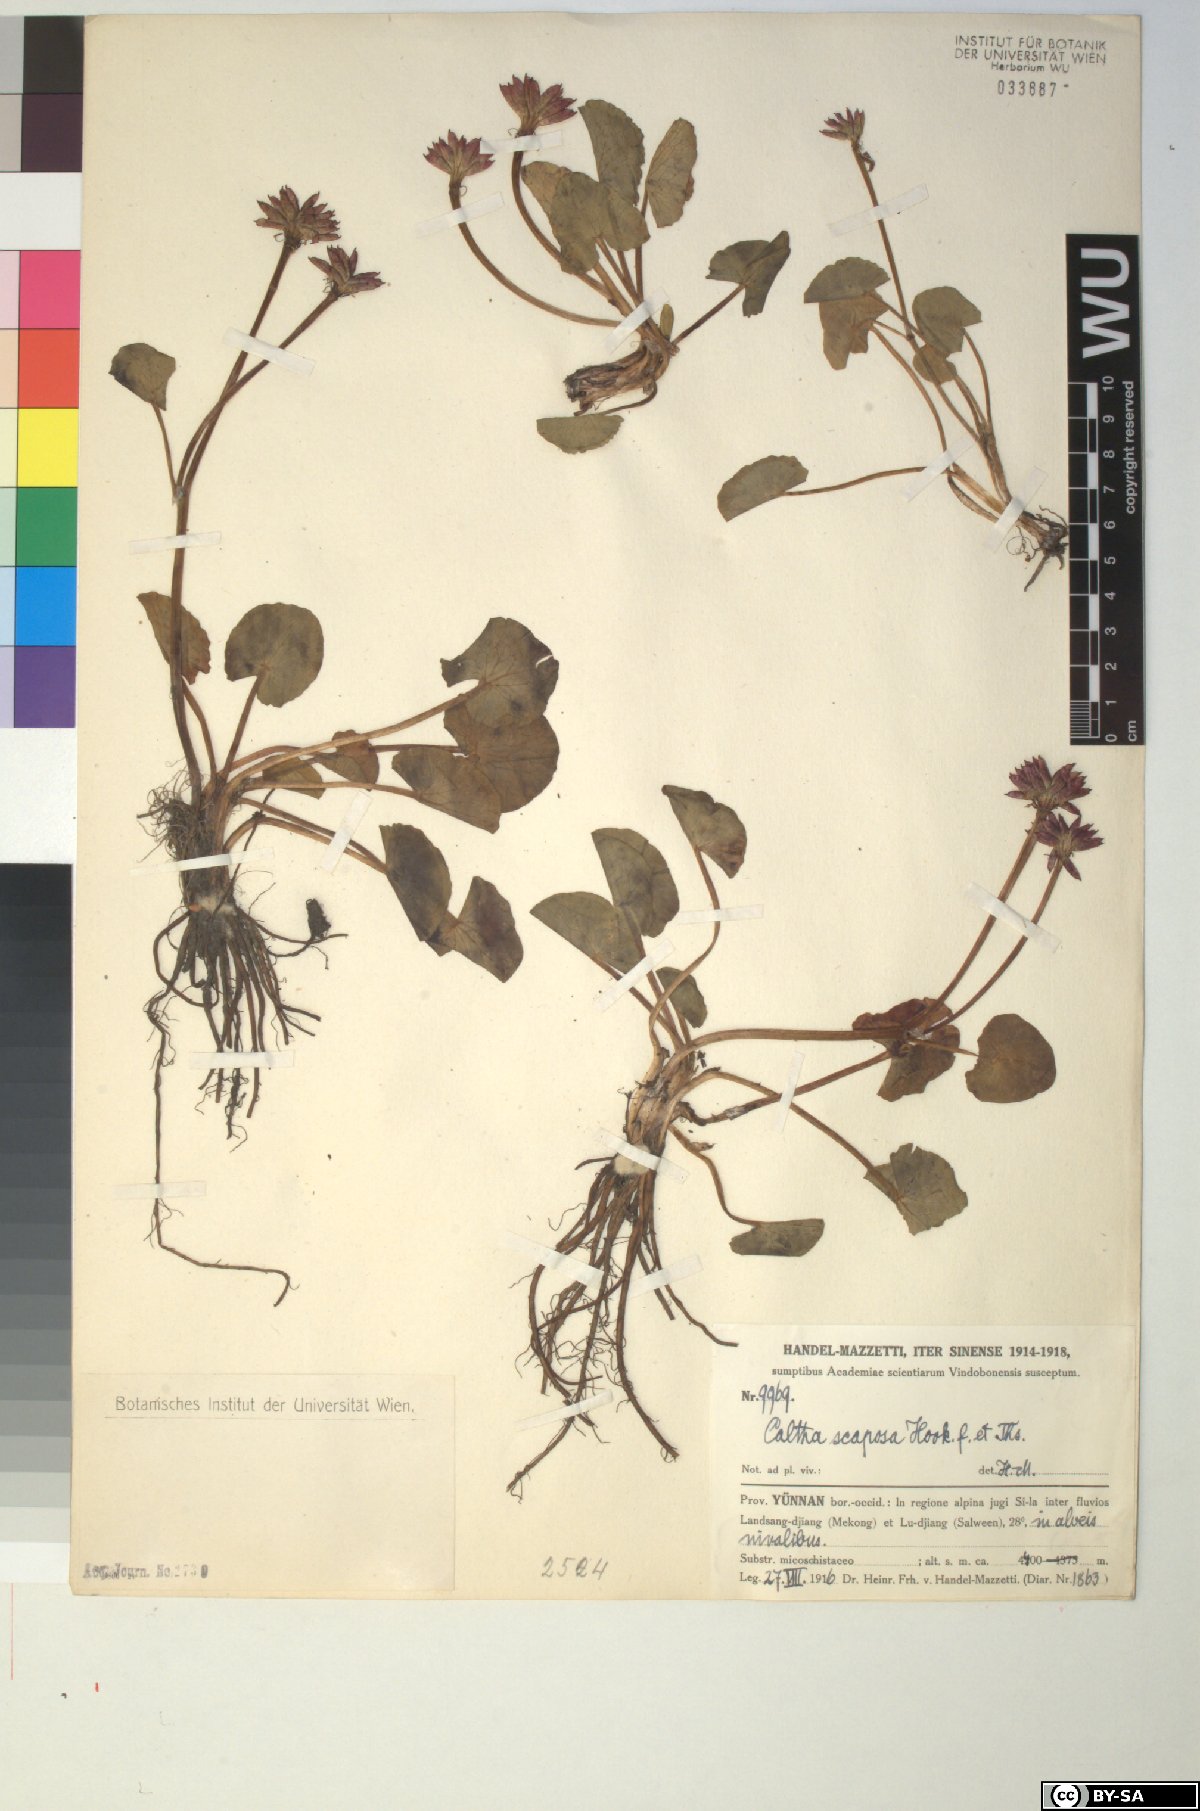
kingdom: Plantae
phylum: Tracheophyta
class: Magnoliopsida
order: Ranunculales
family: Ranunculaceae
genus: Caltha
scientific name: Caltha scaposa
